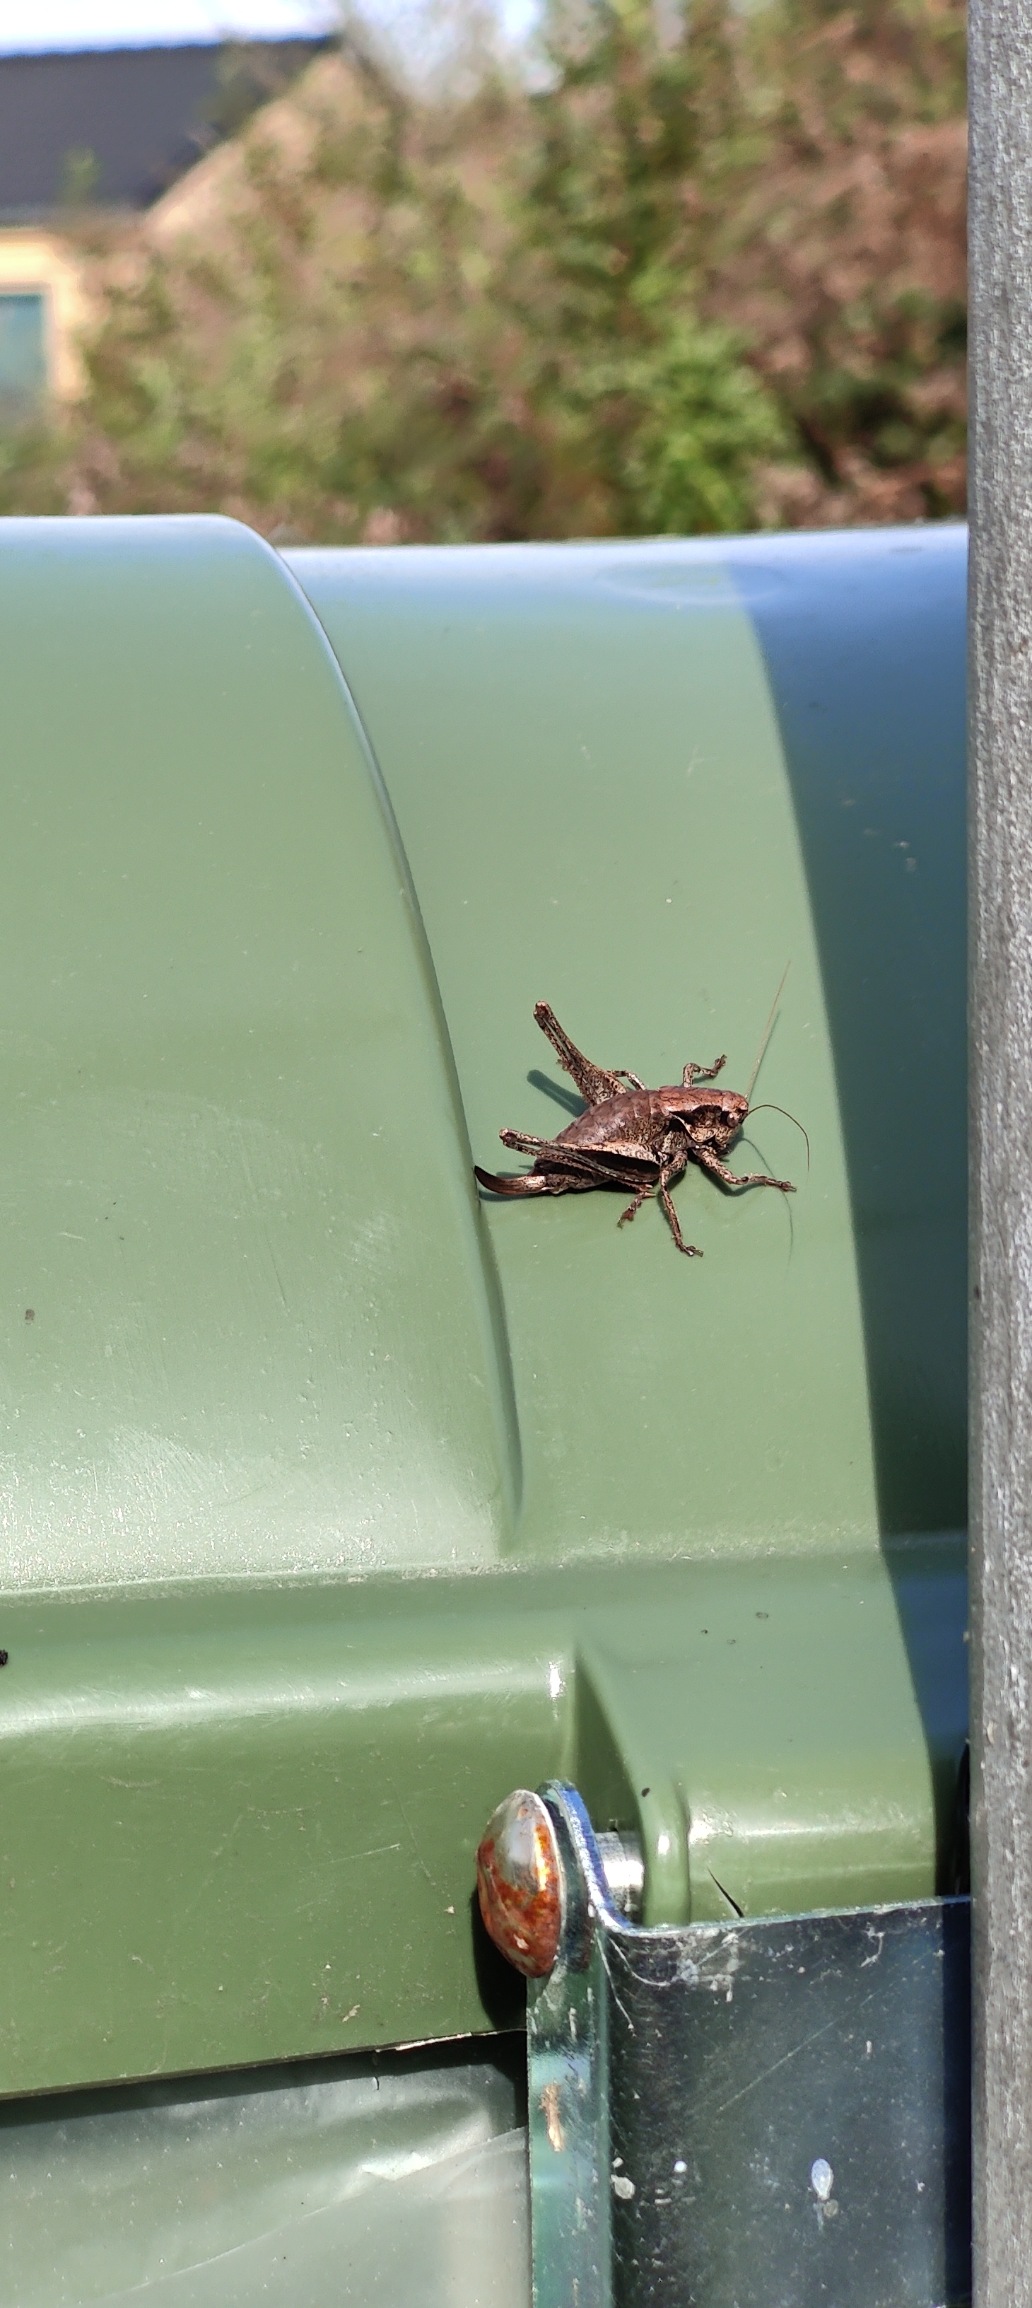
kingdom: Animalia
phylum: Arthropoda
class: Insecta
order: Orthoptera
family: Tettigoniidae
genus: Pholidoptera
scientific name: Pholidoptera griseoaptera
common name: Buskgræshoppe
